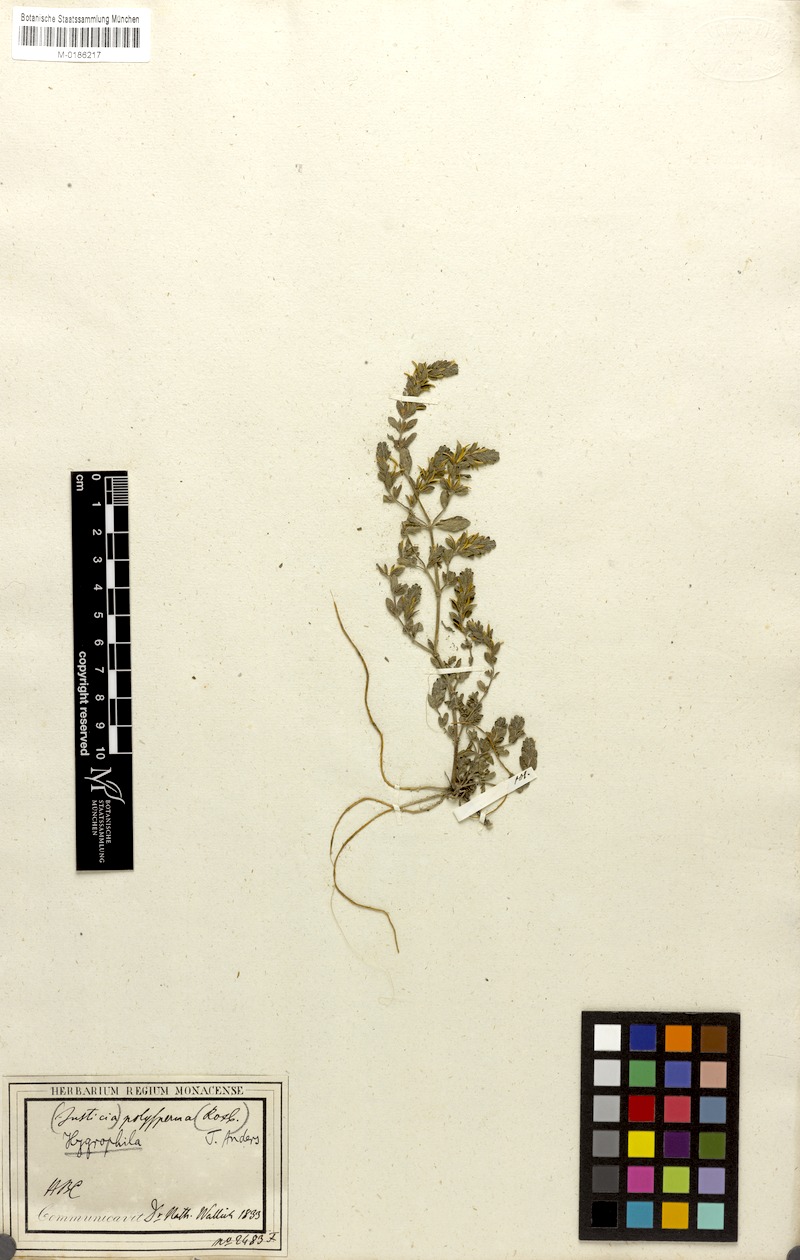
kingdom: Plantae
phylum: Tracheophyta
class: Magnoliopsida
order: Lamiales
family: Acanthaceae
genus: Hygrophila
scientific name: Hygrophila polysperma
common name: Indian swampweed
